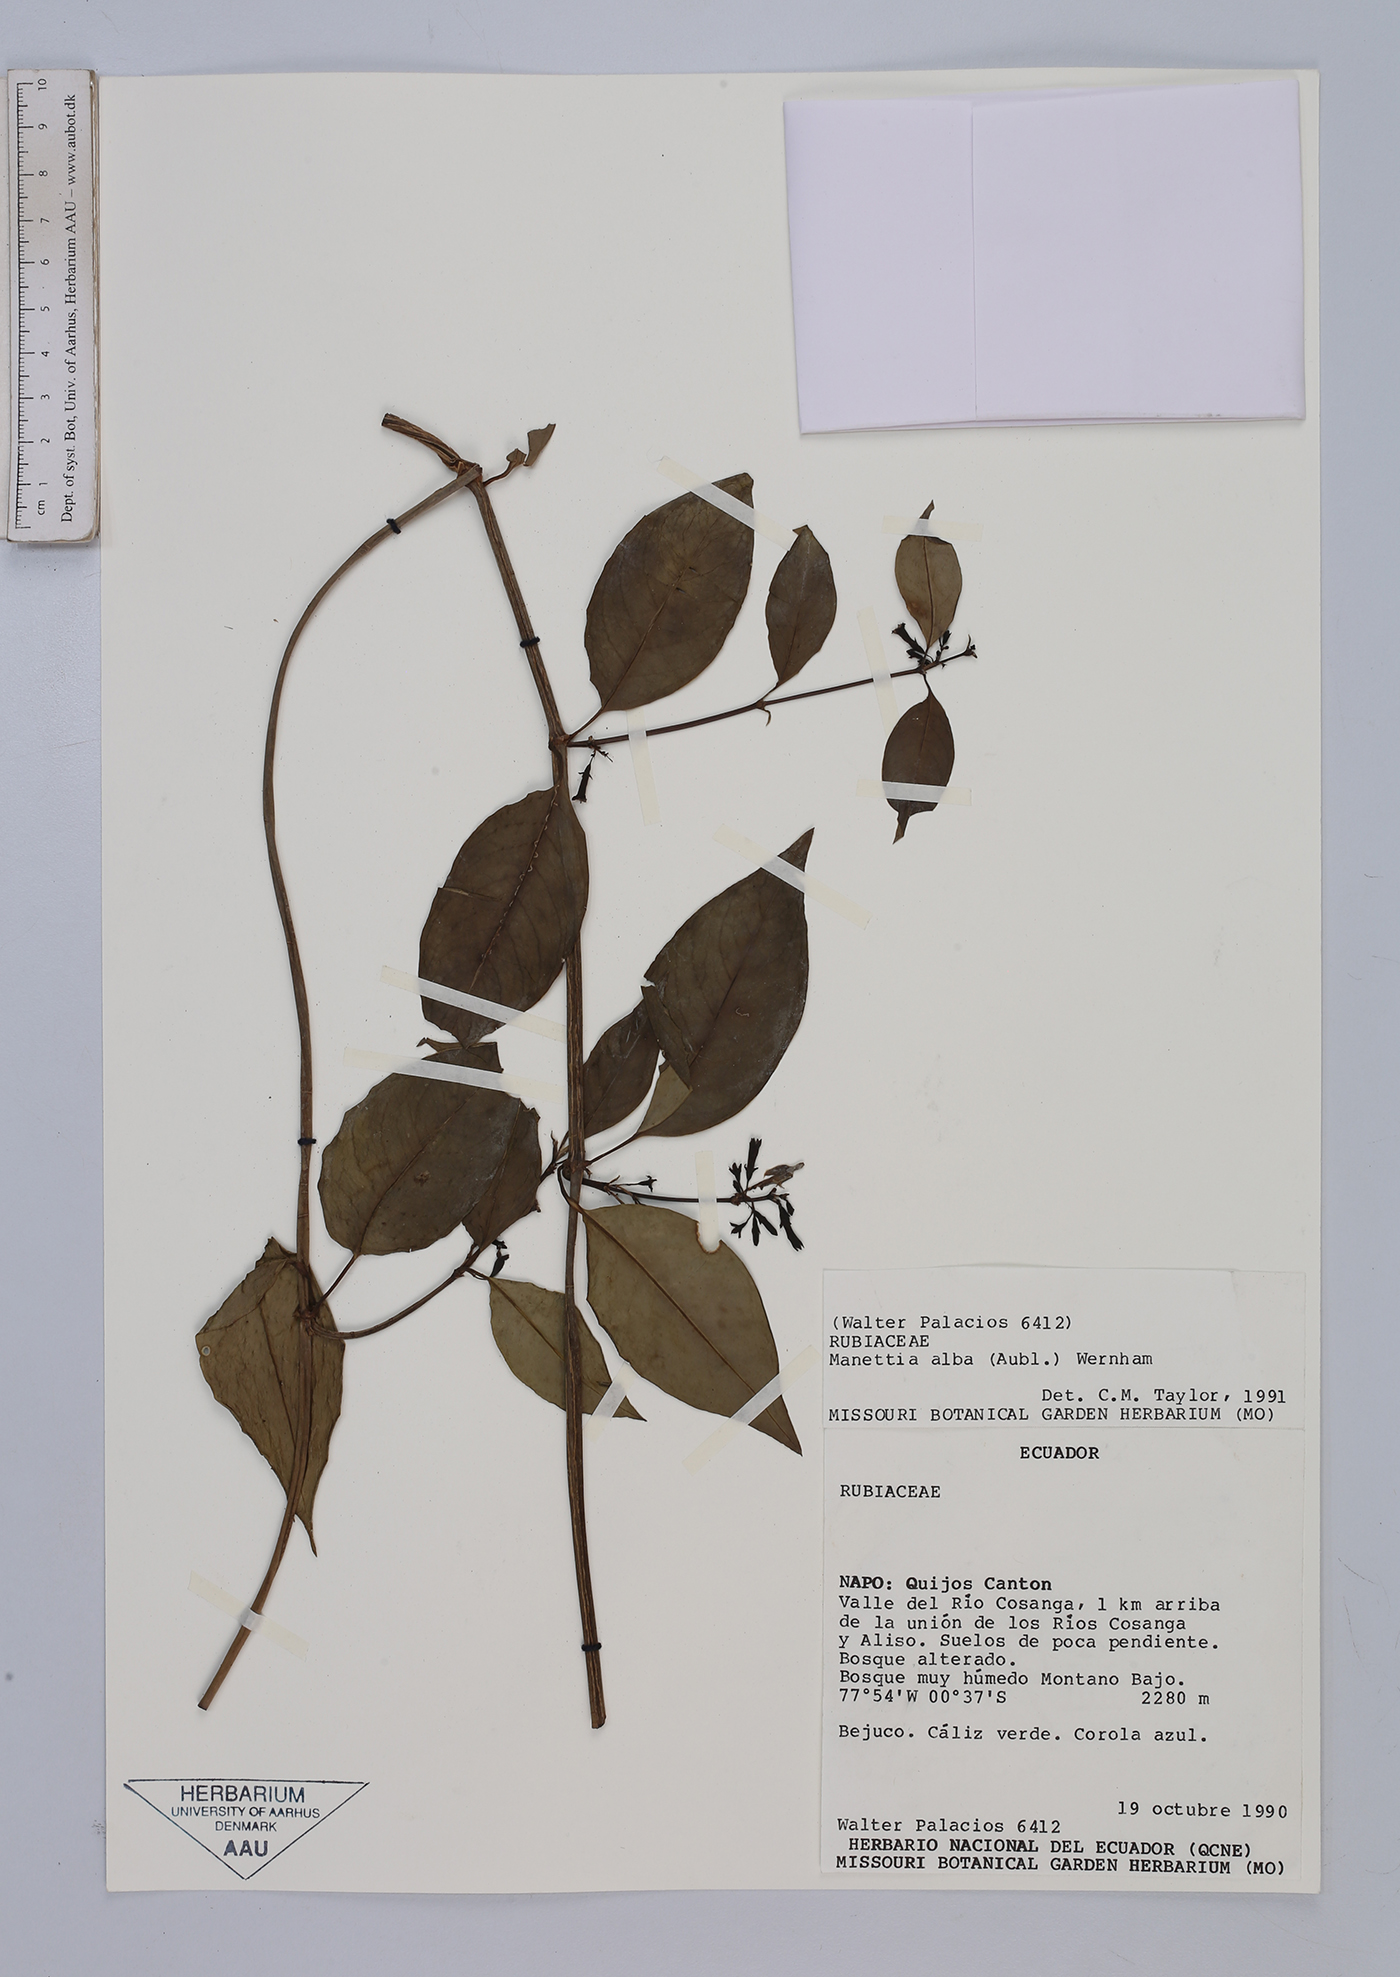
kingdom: Plantae
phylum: Tracheophyta
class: Magnoliopsida
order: Gentianales
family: Rubiaceae
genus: Manettia
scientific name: Manettia alba
